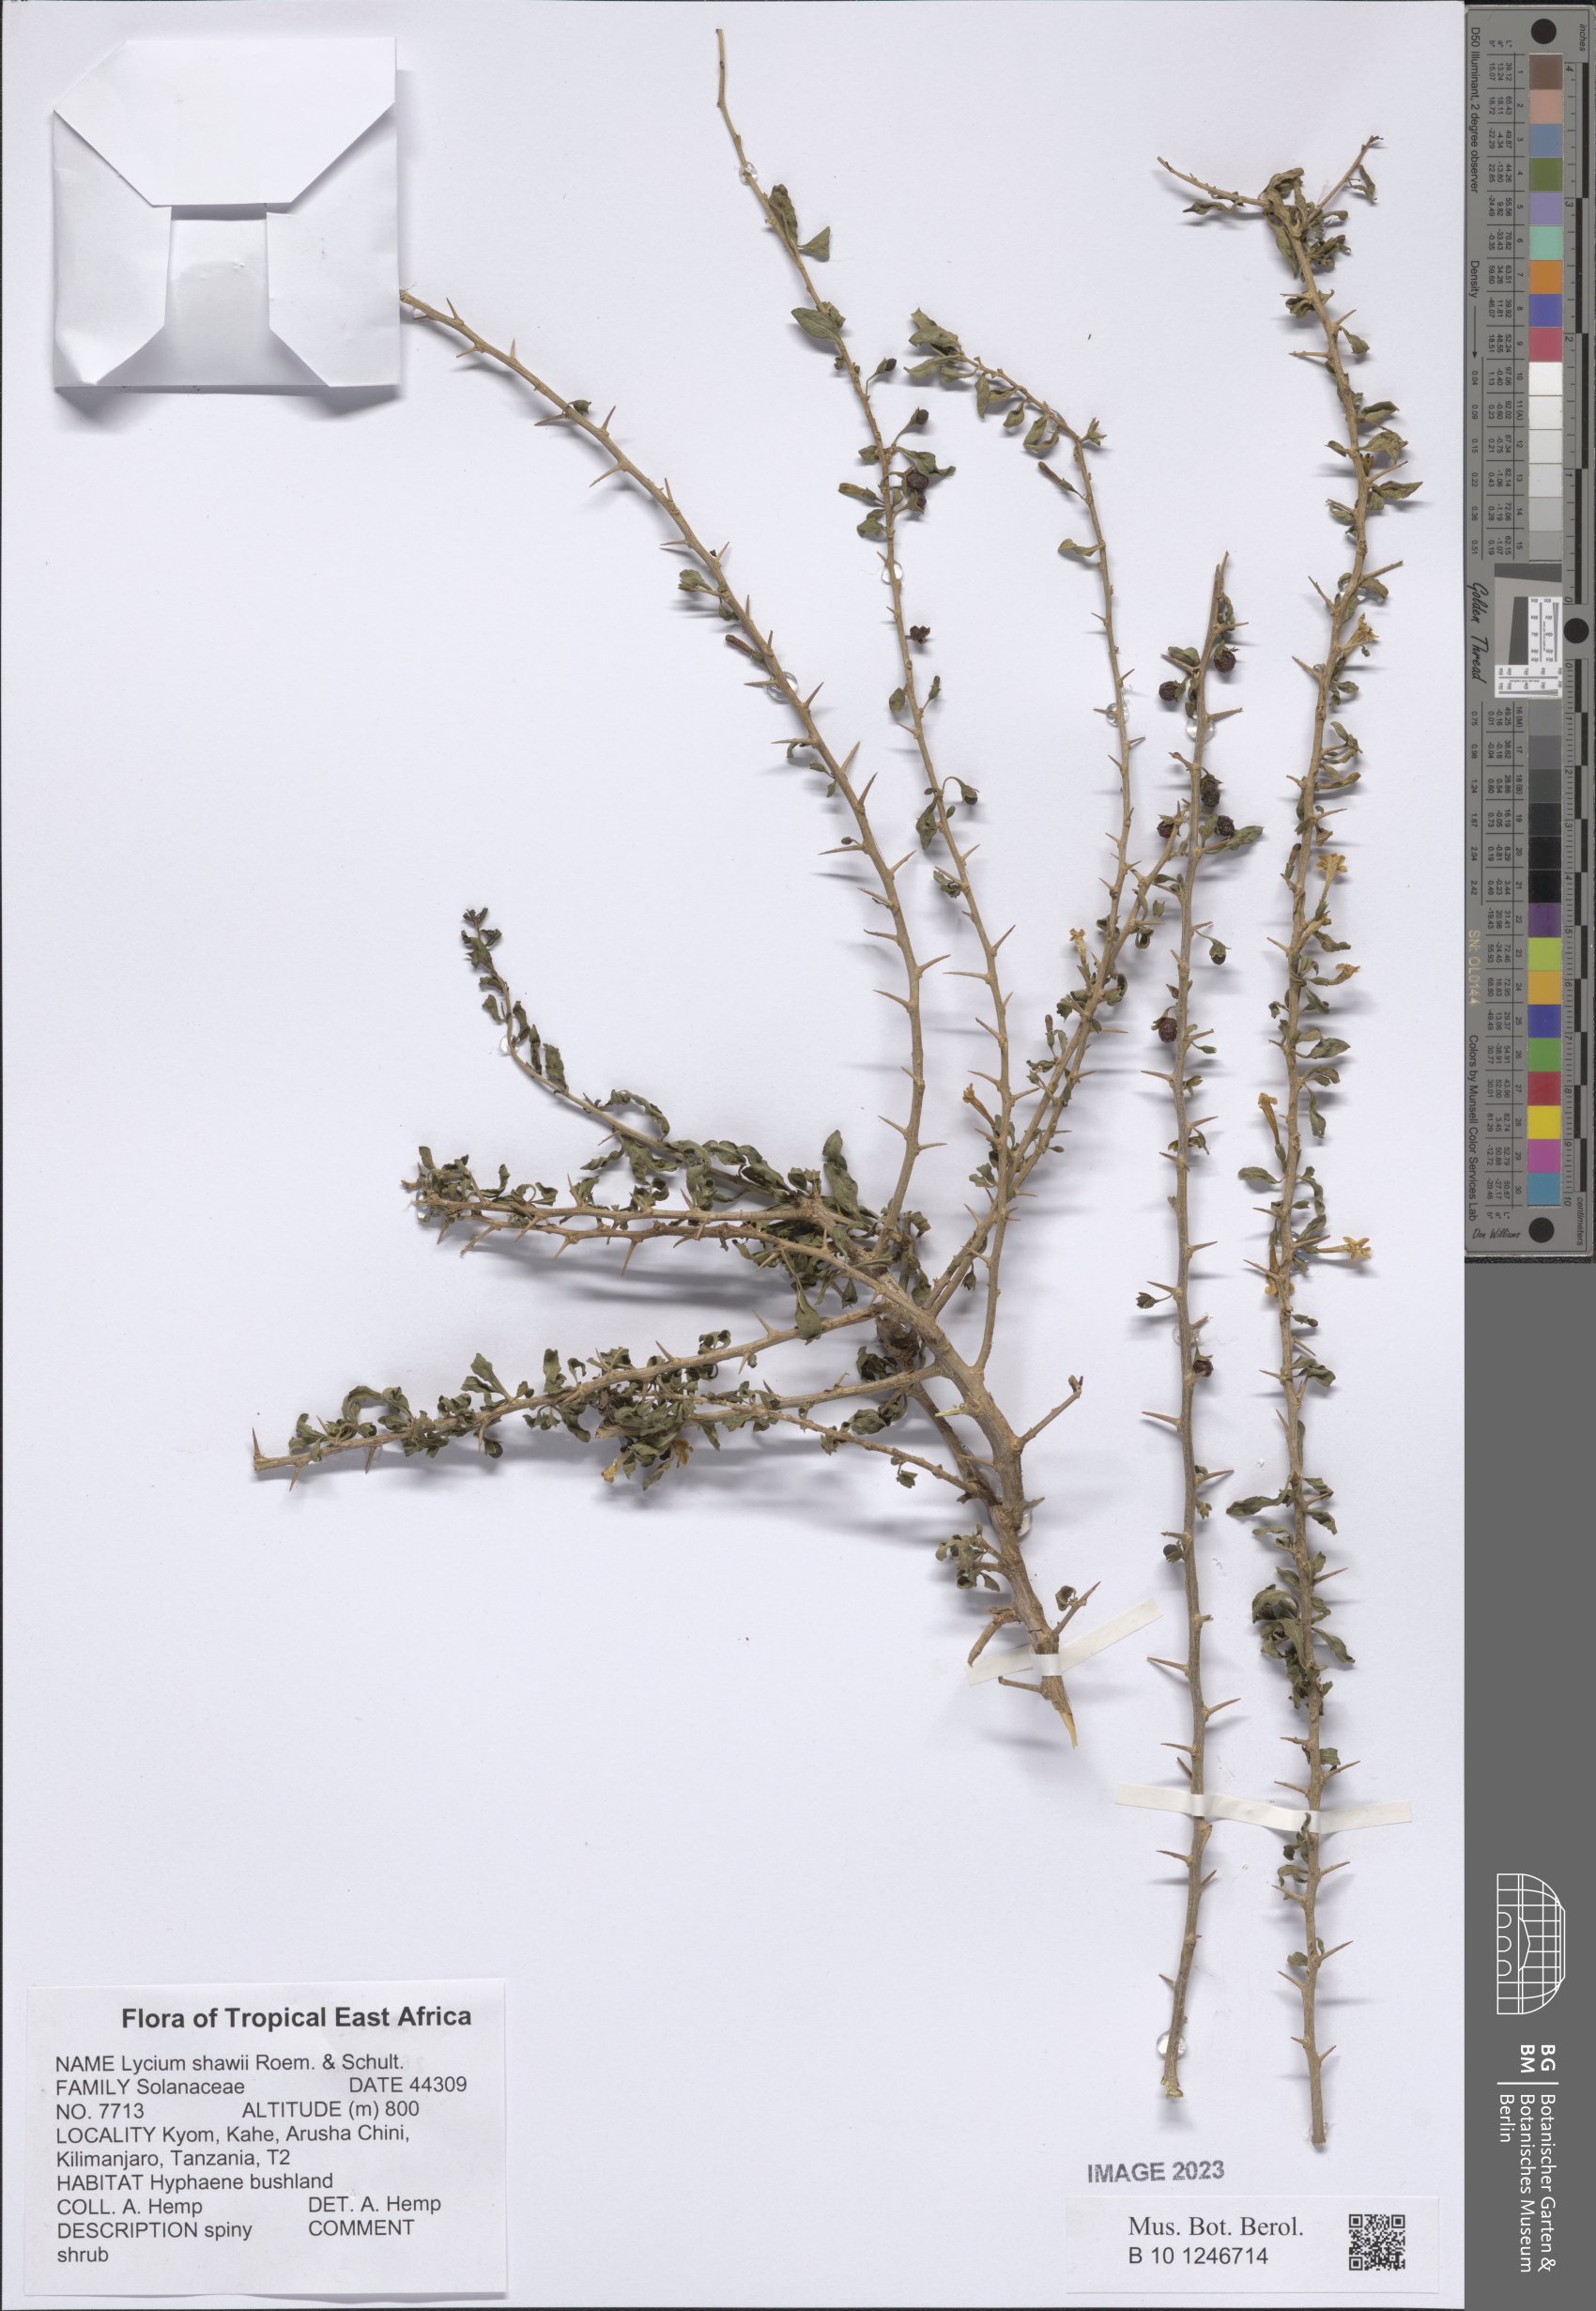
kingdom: Plantae
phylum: Tracheophyta
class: Magnoliopsida
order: Solanales
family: Solanaceae
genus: Lycium
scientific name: Lycium shawii
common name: Boxthorn
